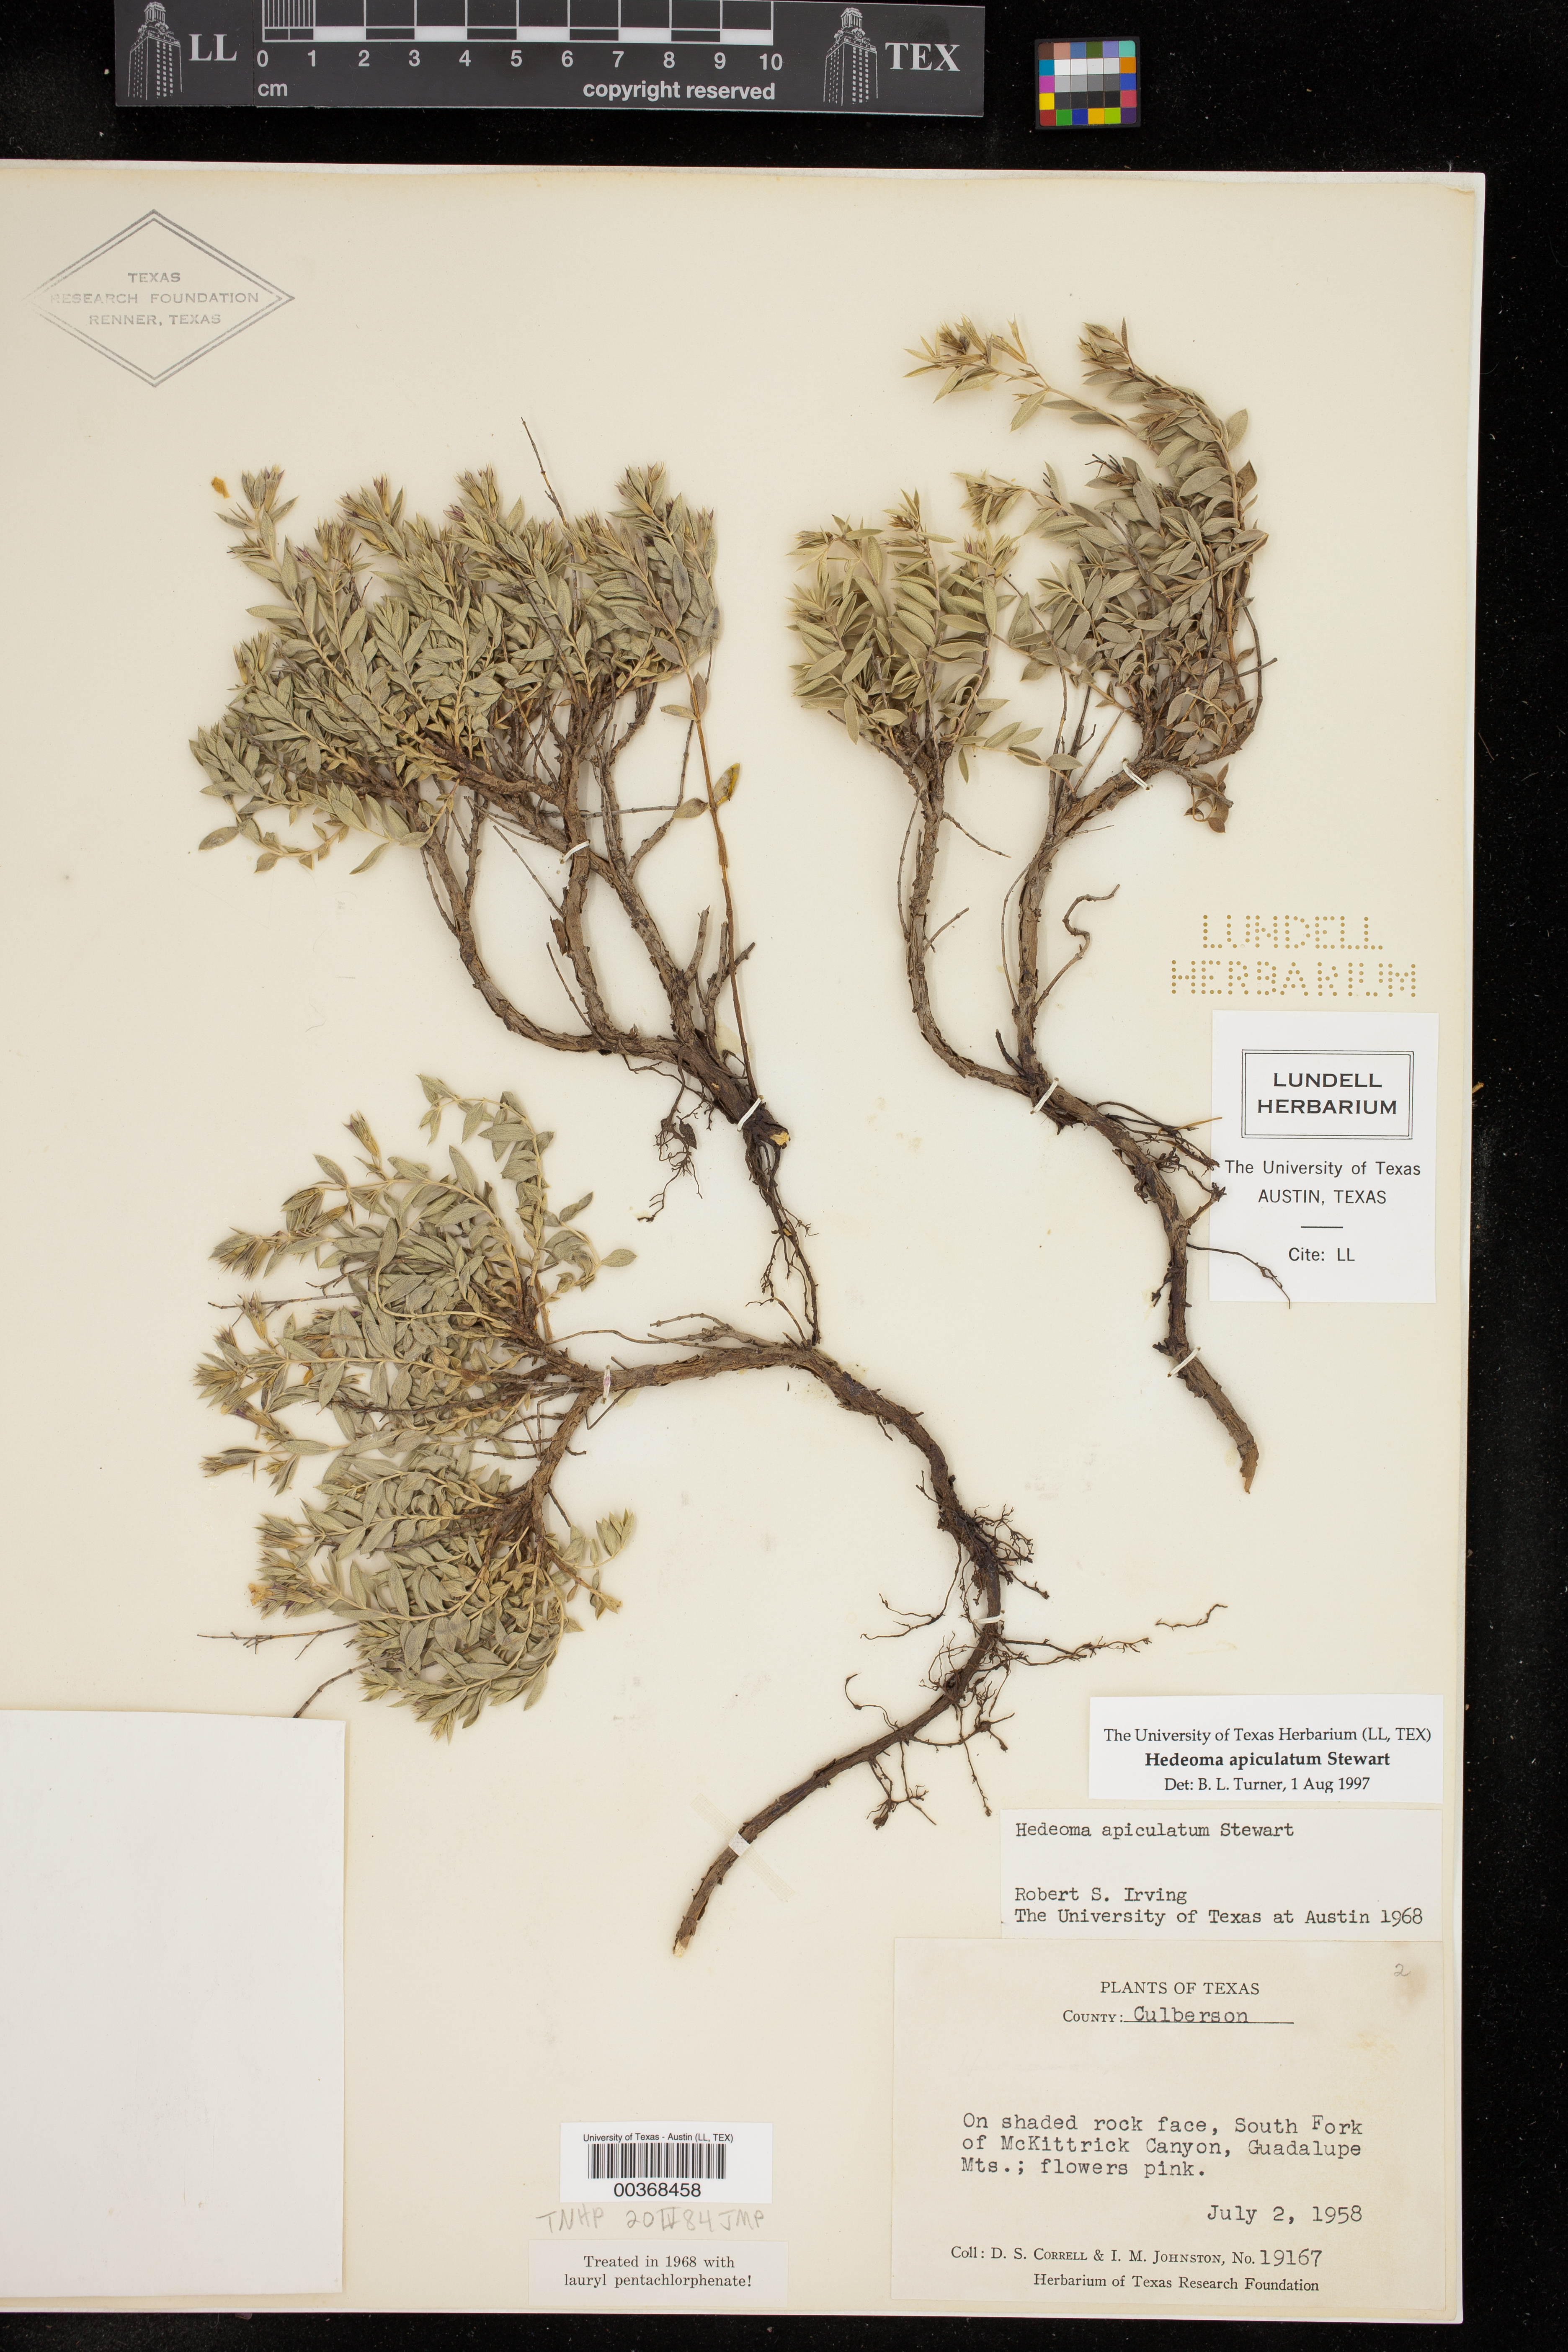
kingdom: Plantae
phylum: Tracheophyta
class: Magnoliopsida
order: Lamiales
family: Lamiaceae
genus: Hedeoma
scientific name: Hedeoma apiculata
